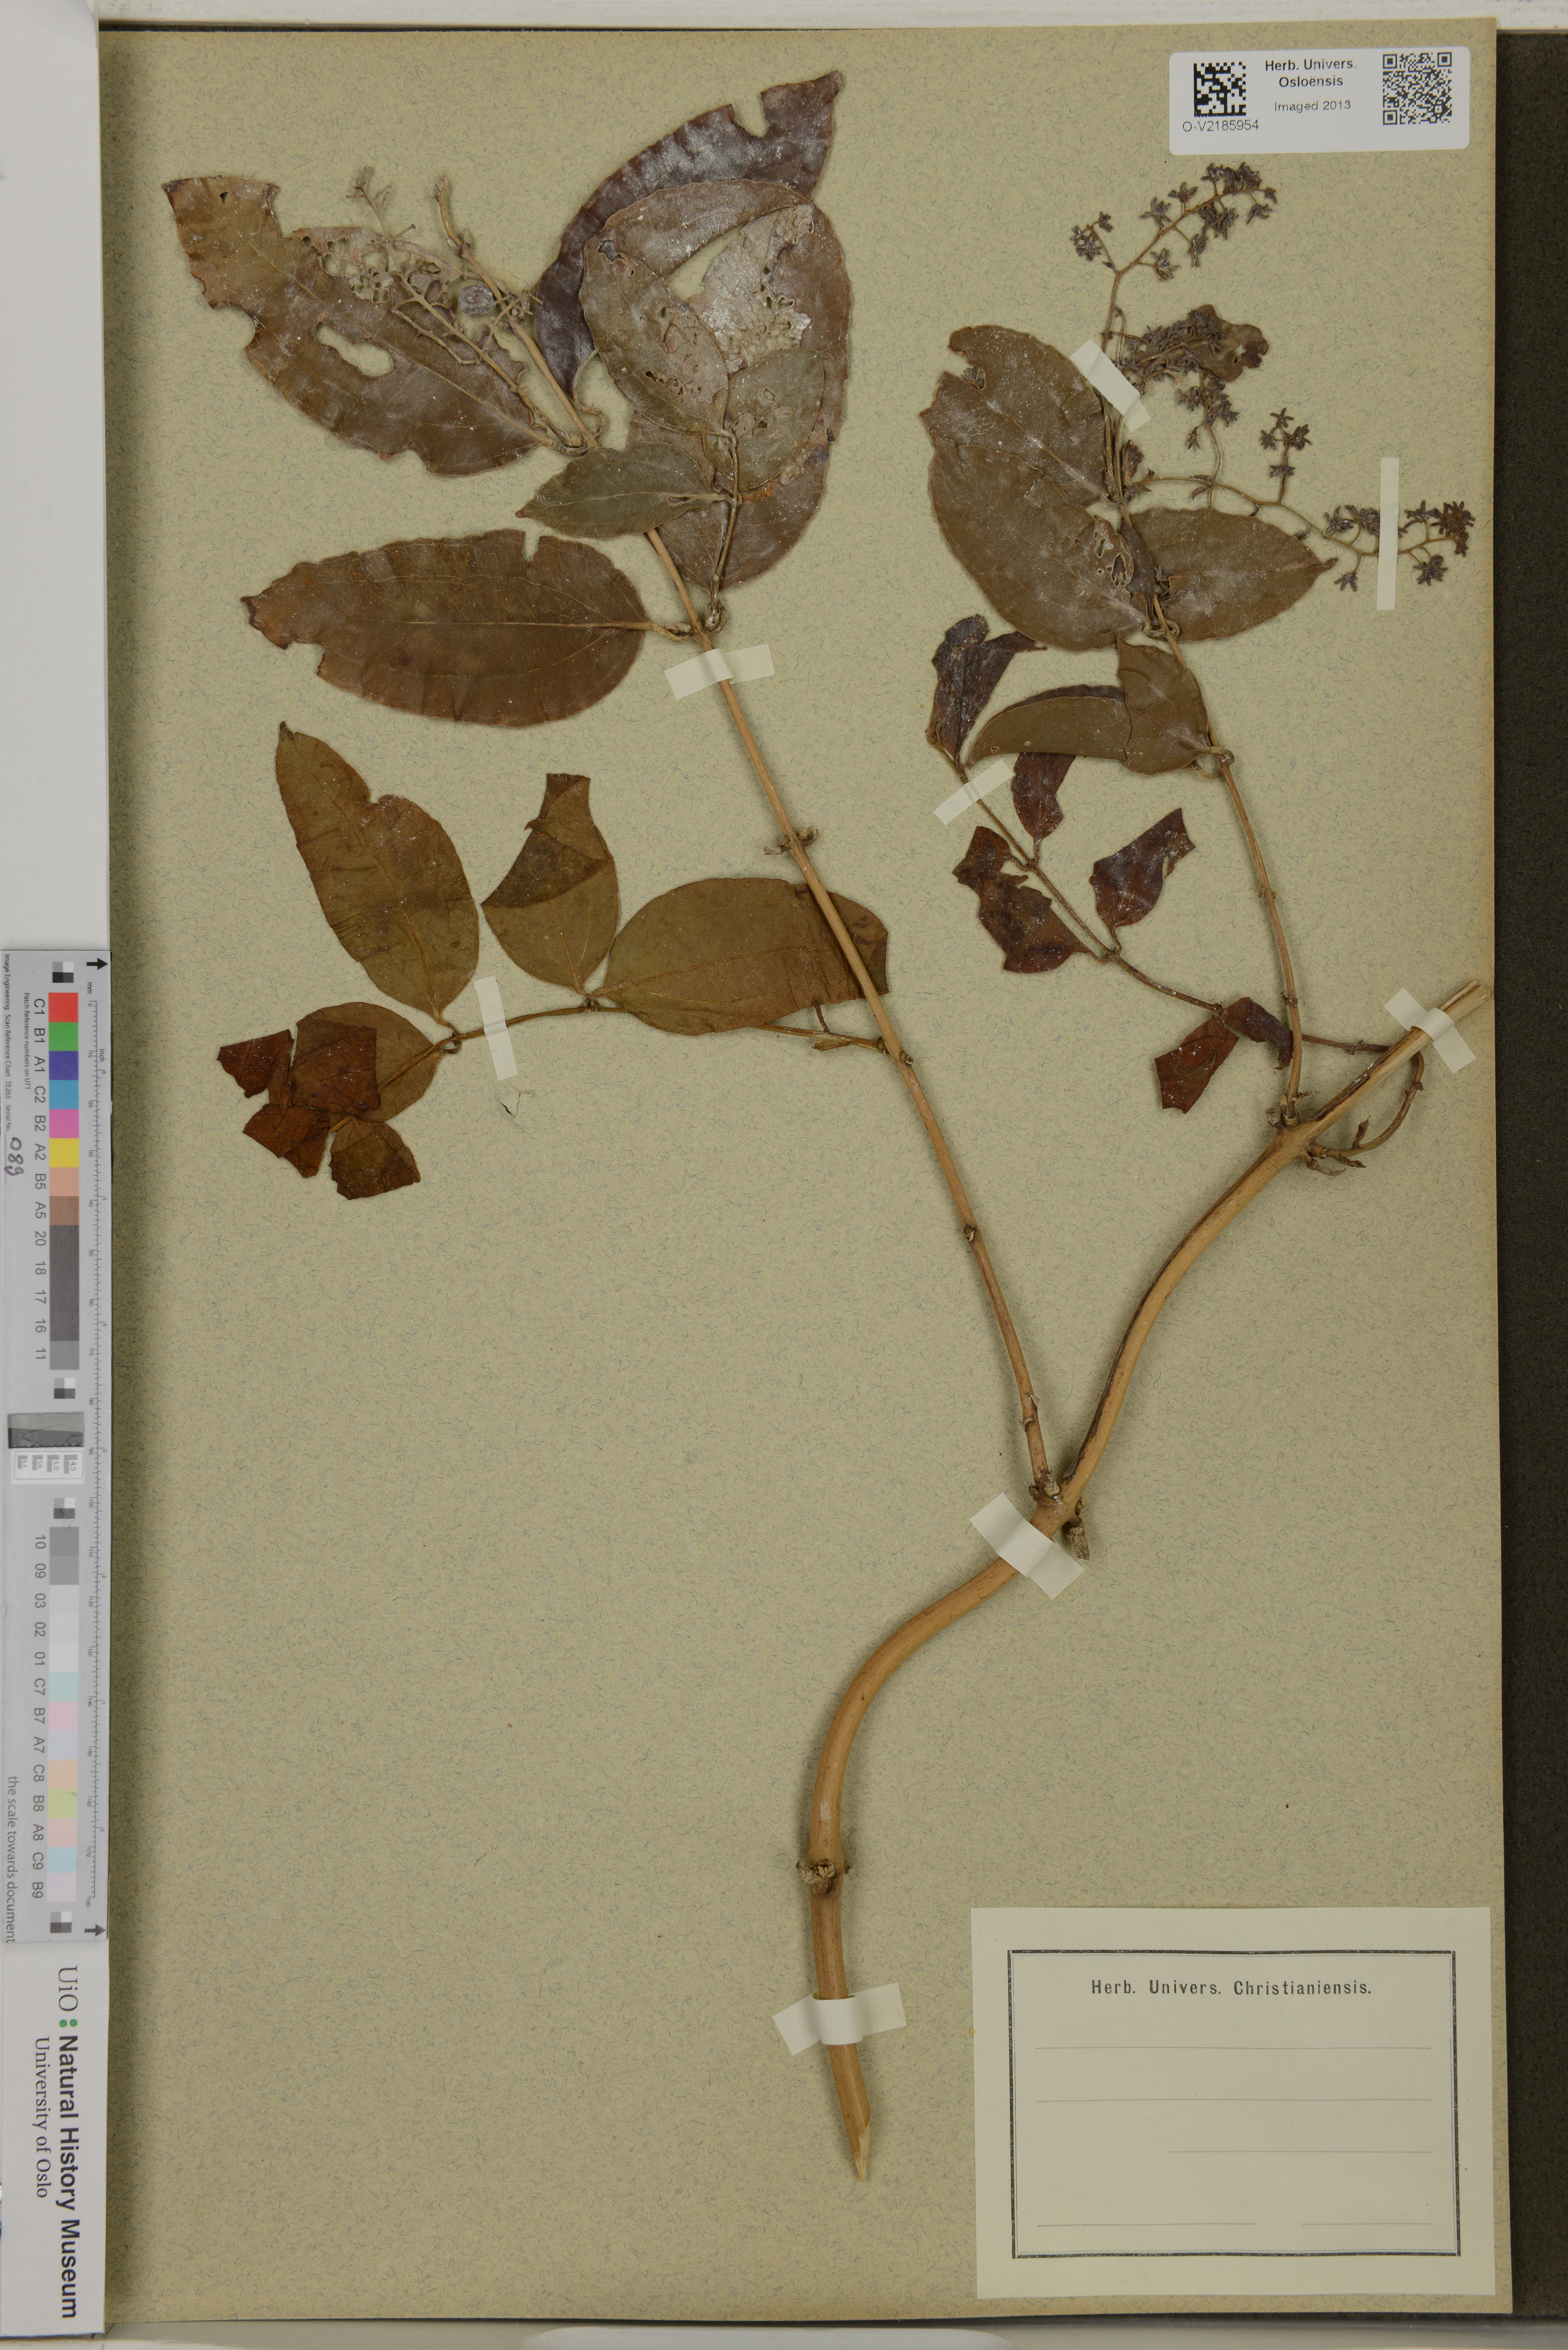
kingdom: Plantae
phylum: Tracheophyta
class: Liliopsida
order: Liliales
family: Ripogonaceae
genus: Rhipogonum
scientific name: Rhipogonum
